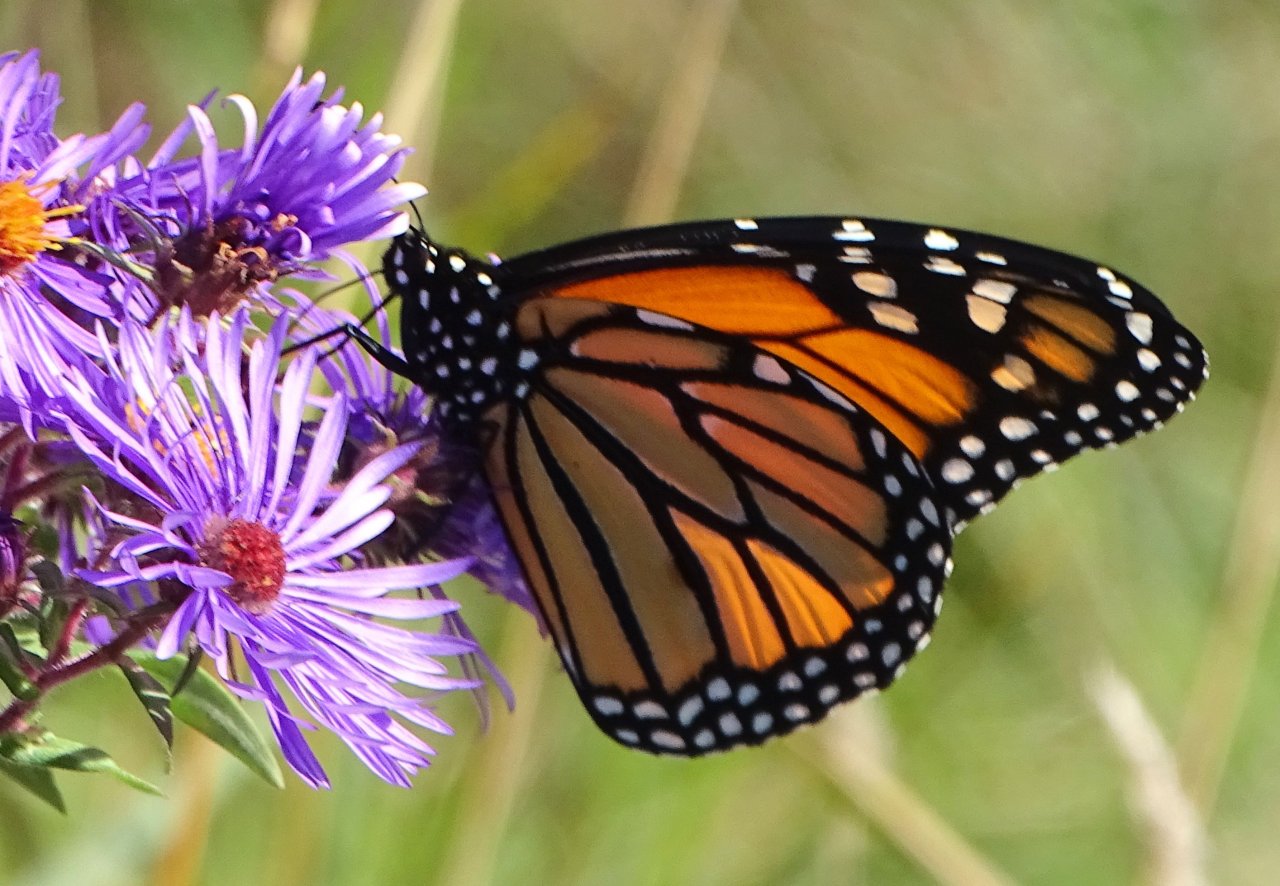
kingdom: Animalia
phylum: Arthropoda
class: Insecta
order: Lepidoptera
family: Nymphalidae
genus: Danaus
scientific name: Danaus plexippus
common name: Monarch
